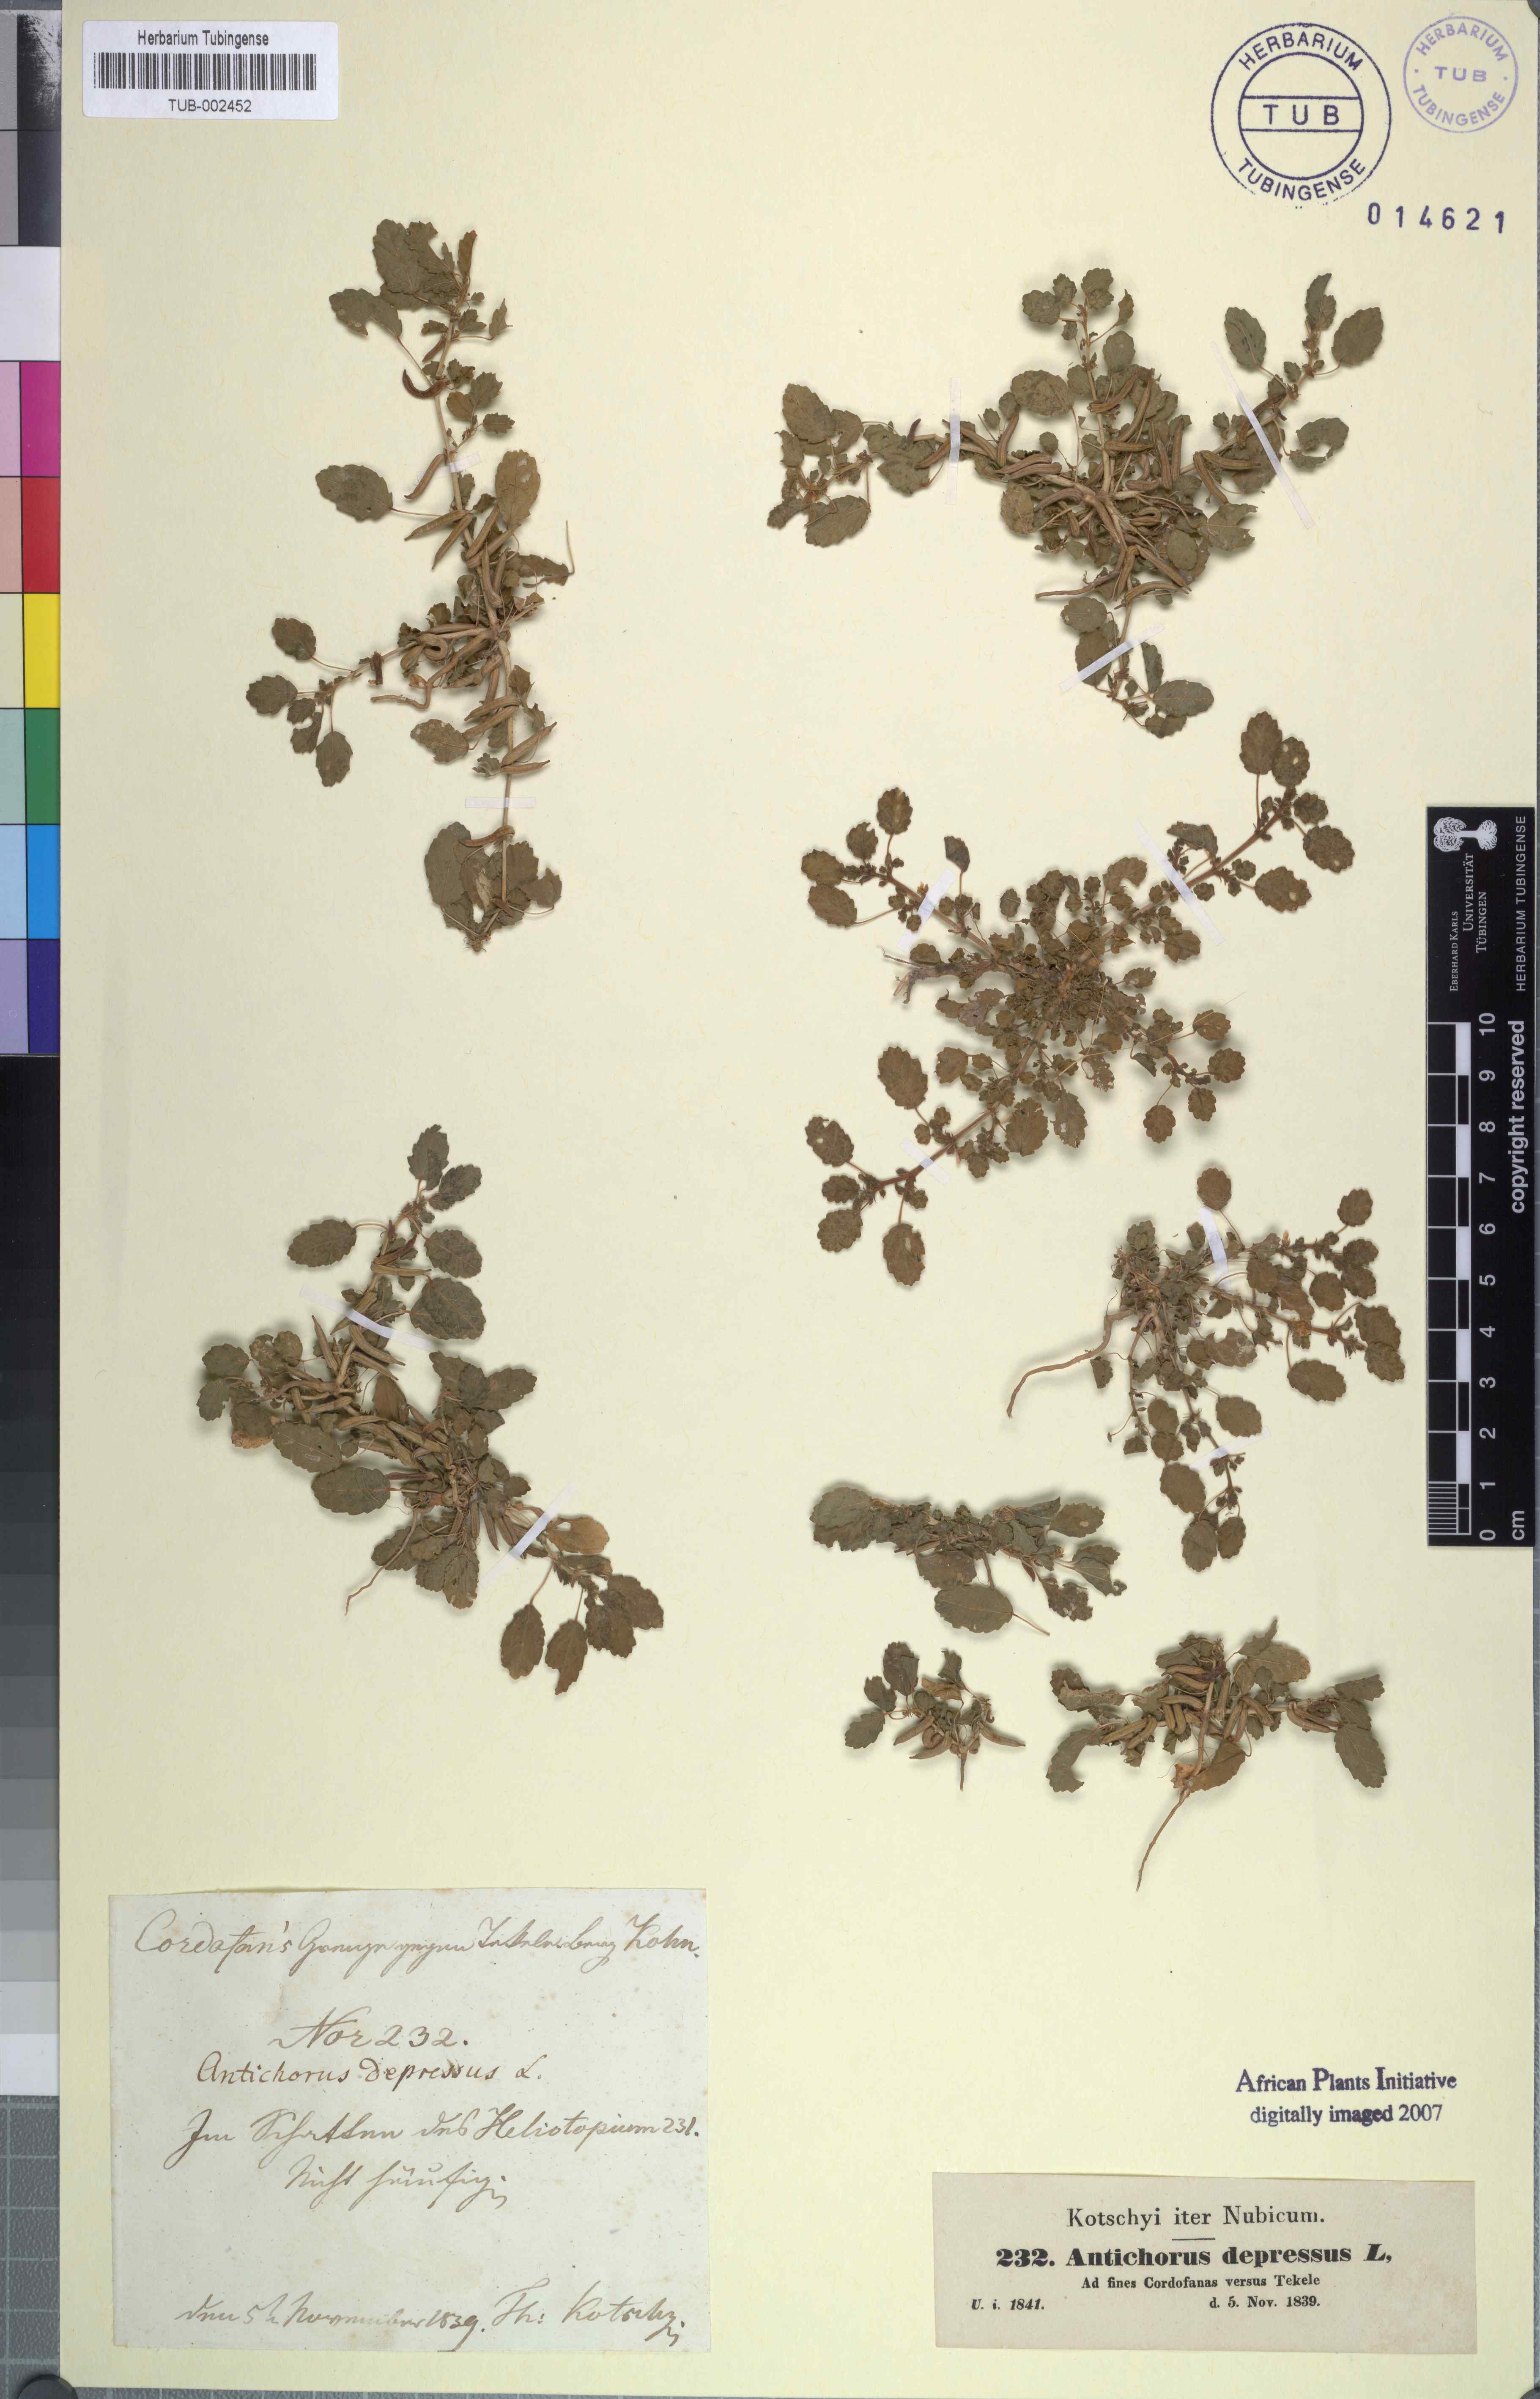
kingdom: Plantae
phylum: Tracheophyta
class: Magnoliopsida
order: Malvales
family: Malvaceae
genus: Corchorus
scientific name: Corchorus depressus
